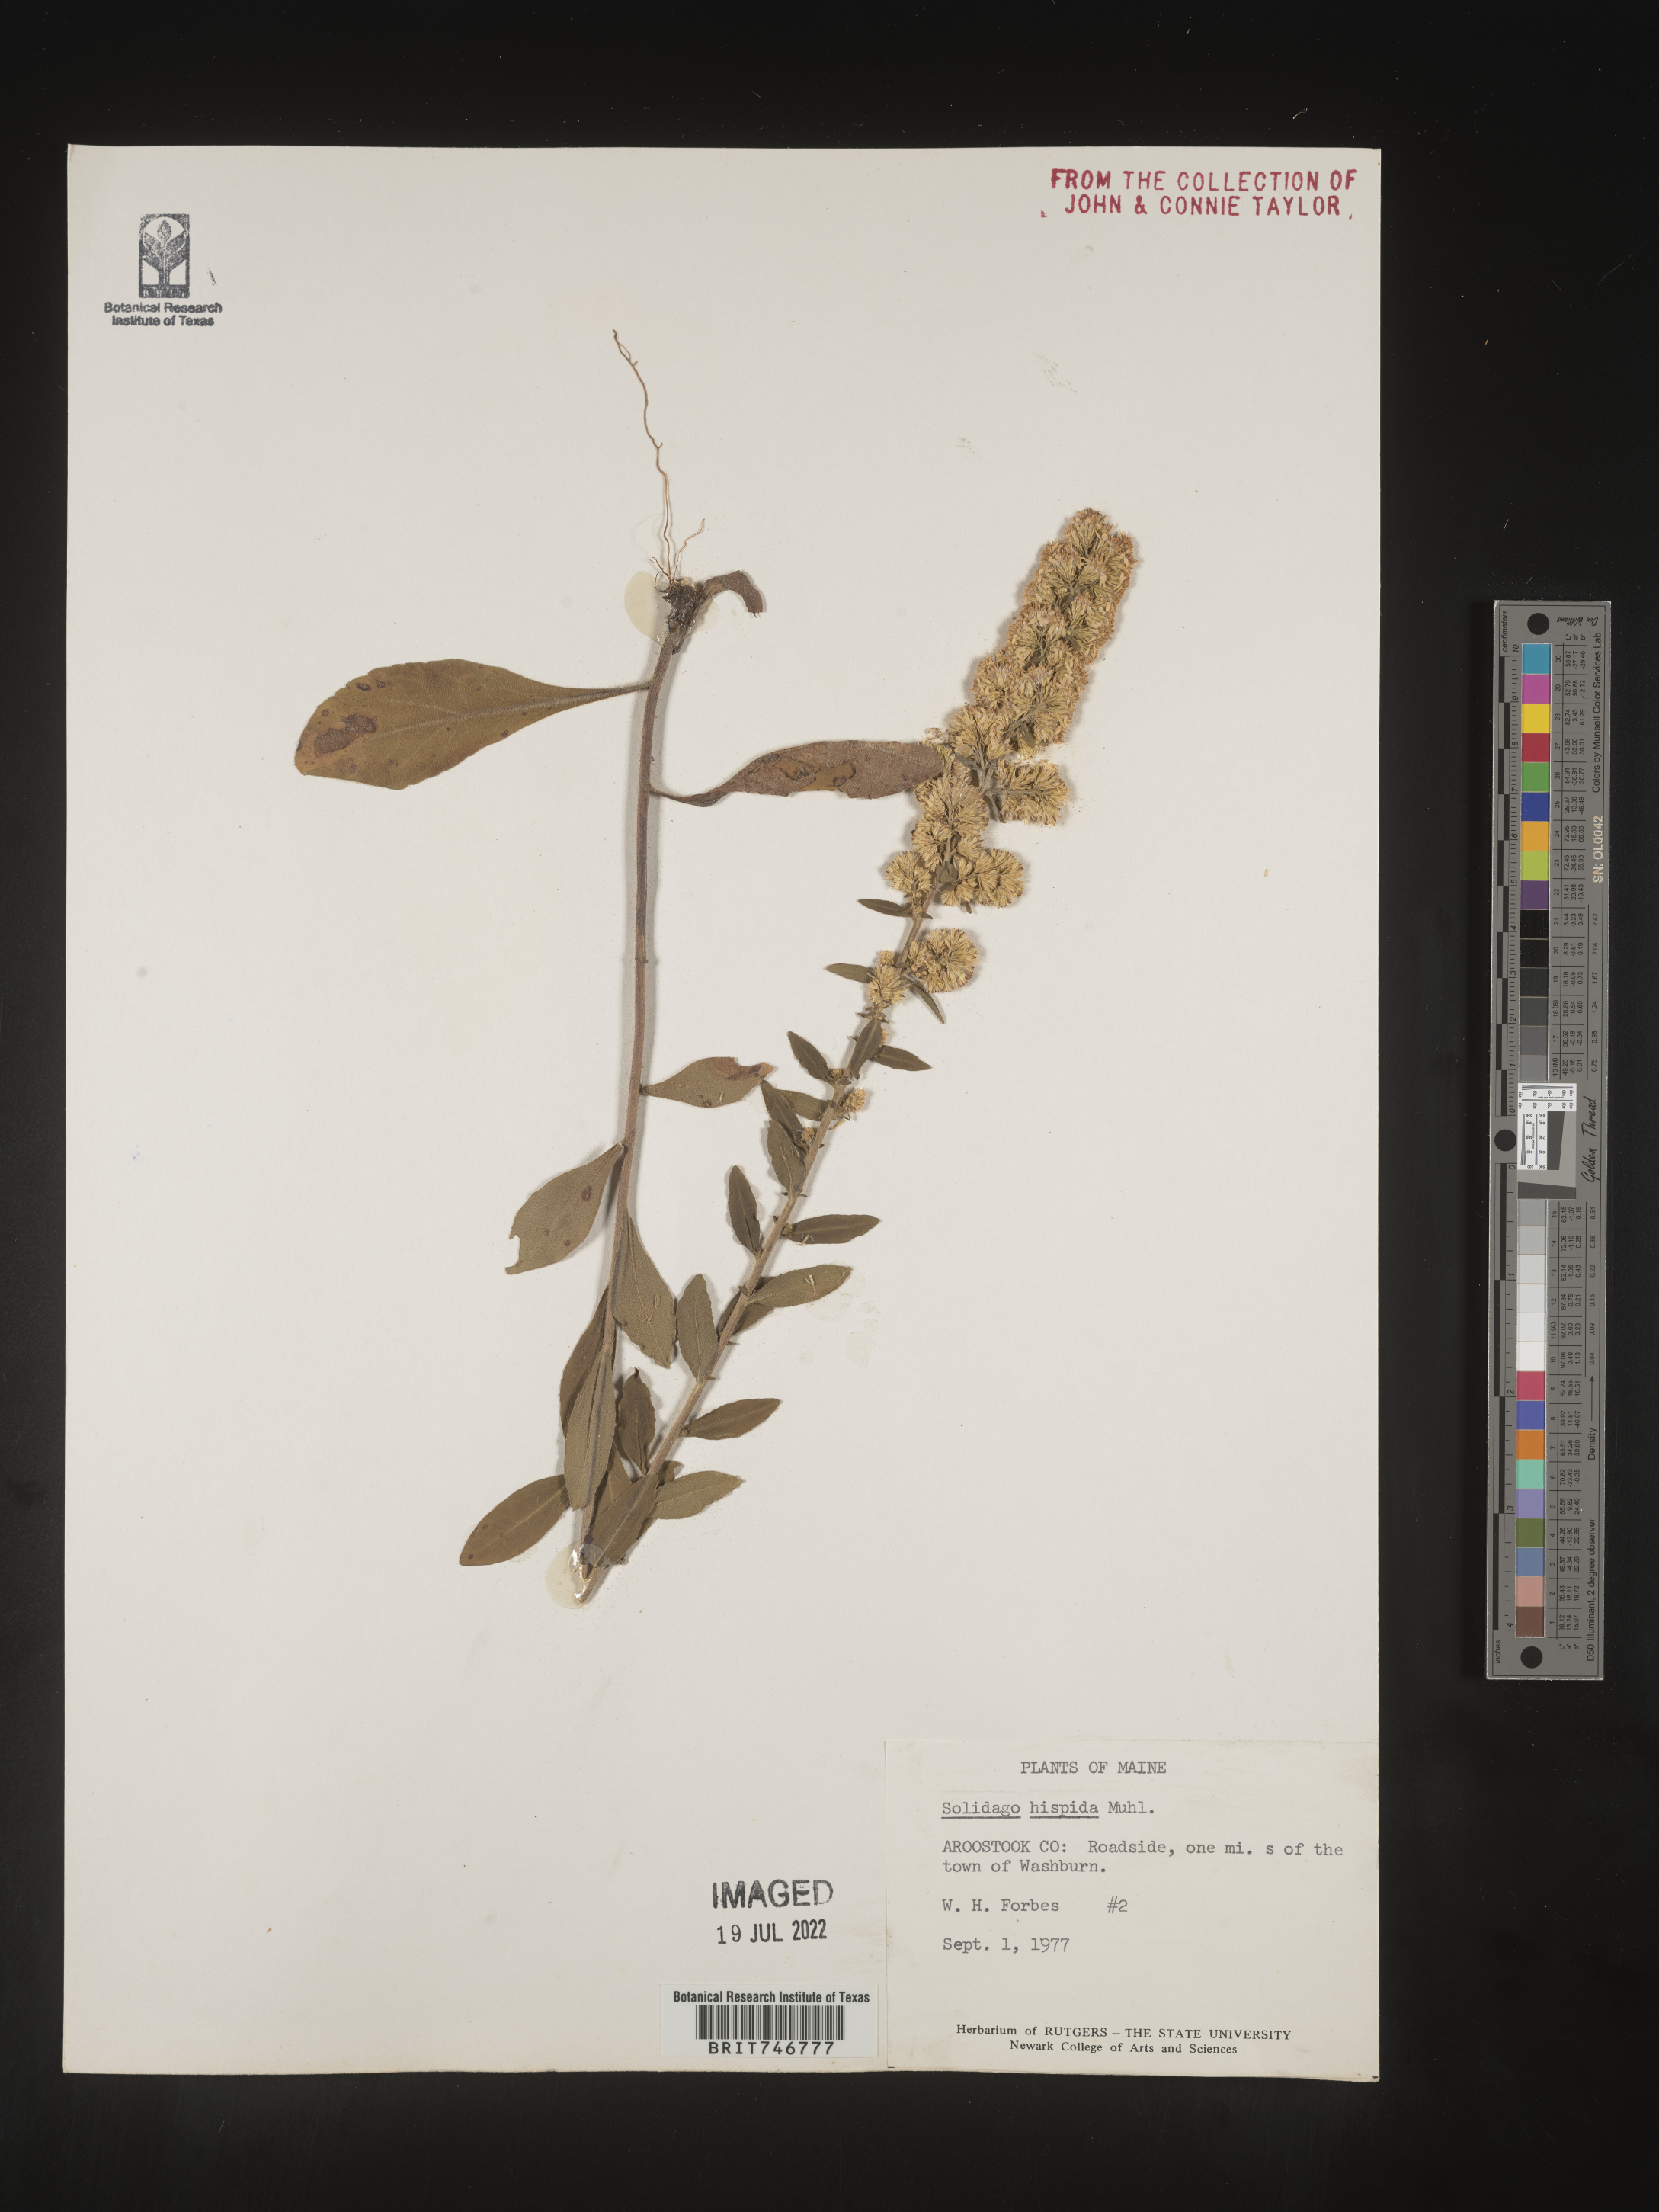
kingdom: Plantae
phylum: Tracheophyta
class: Magnoliopsida
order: Asterales
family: Asteraceae
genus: Solidago
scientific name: Solidago hispida
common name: Hairy goldenrod
